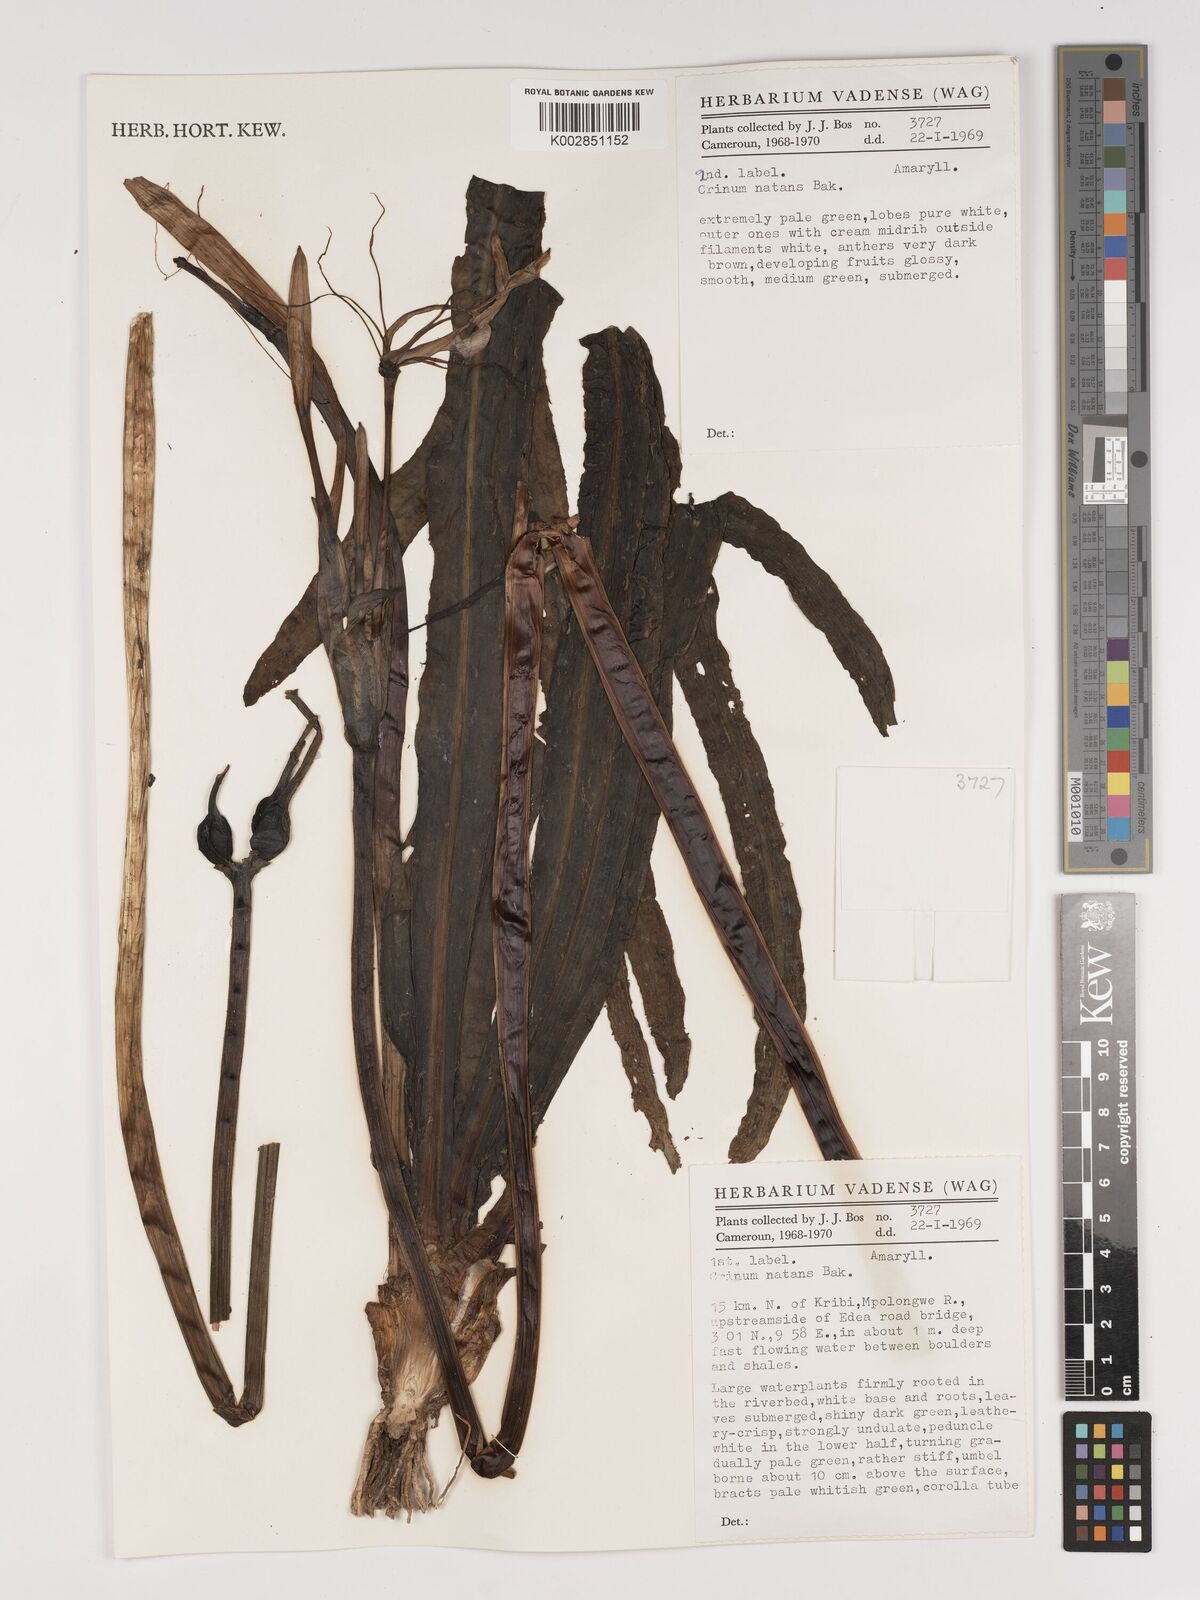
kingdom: Plantae
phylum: Tracheophyta
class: Liliopsida
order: Asparagales
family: Amaryllidaceae
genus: Crinum
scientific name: Crinum natans
